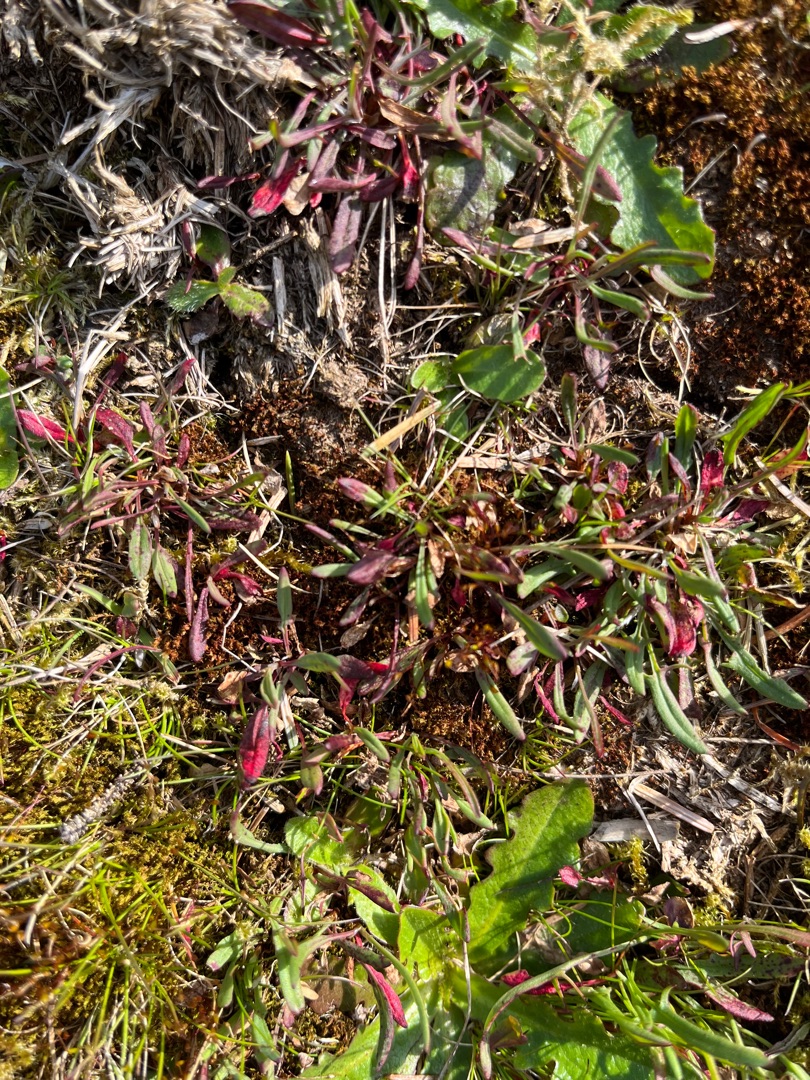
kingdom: Plantae
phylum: Tracheophyta
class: Magnoliopsida
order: Caryophyllales
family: Polygonaceae
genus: Rumex
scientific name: Rumex acetosella
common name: Rødknæ
